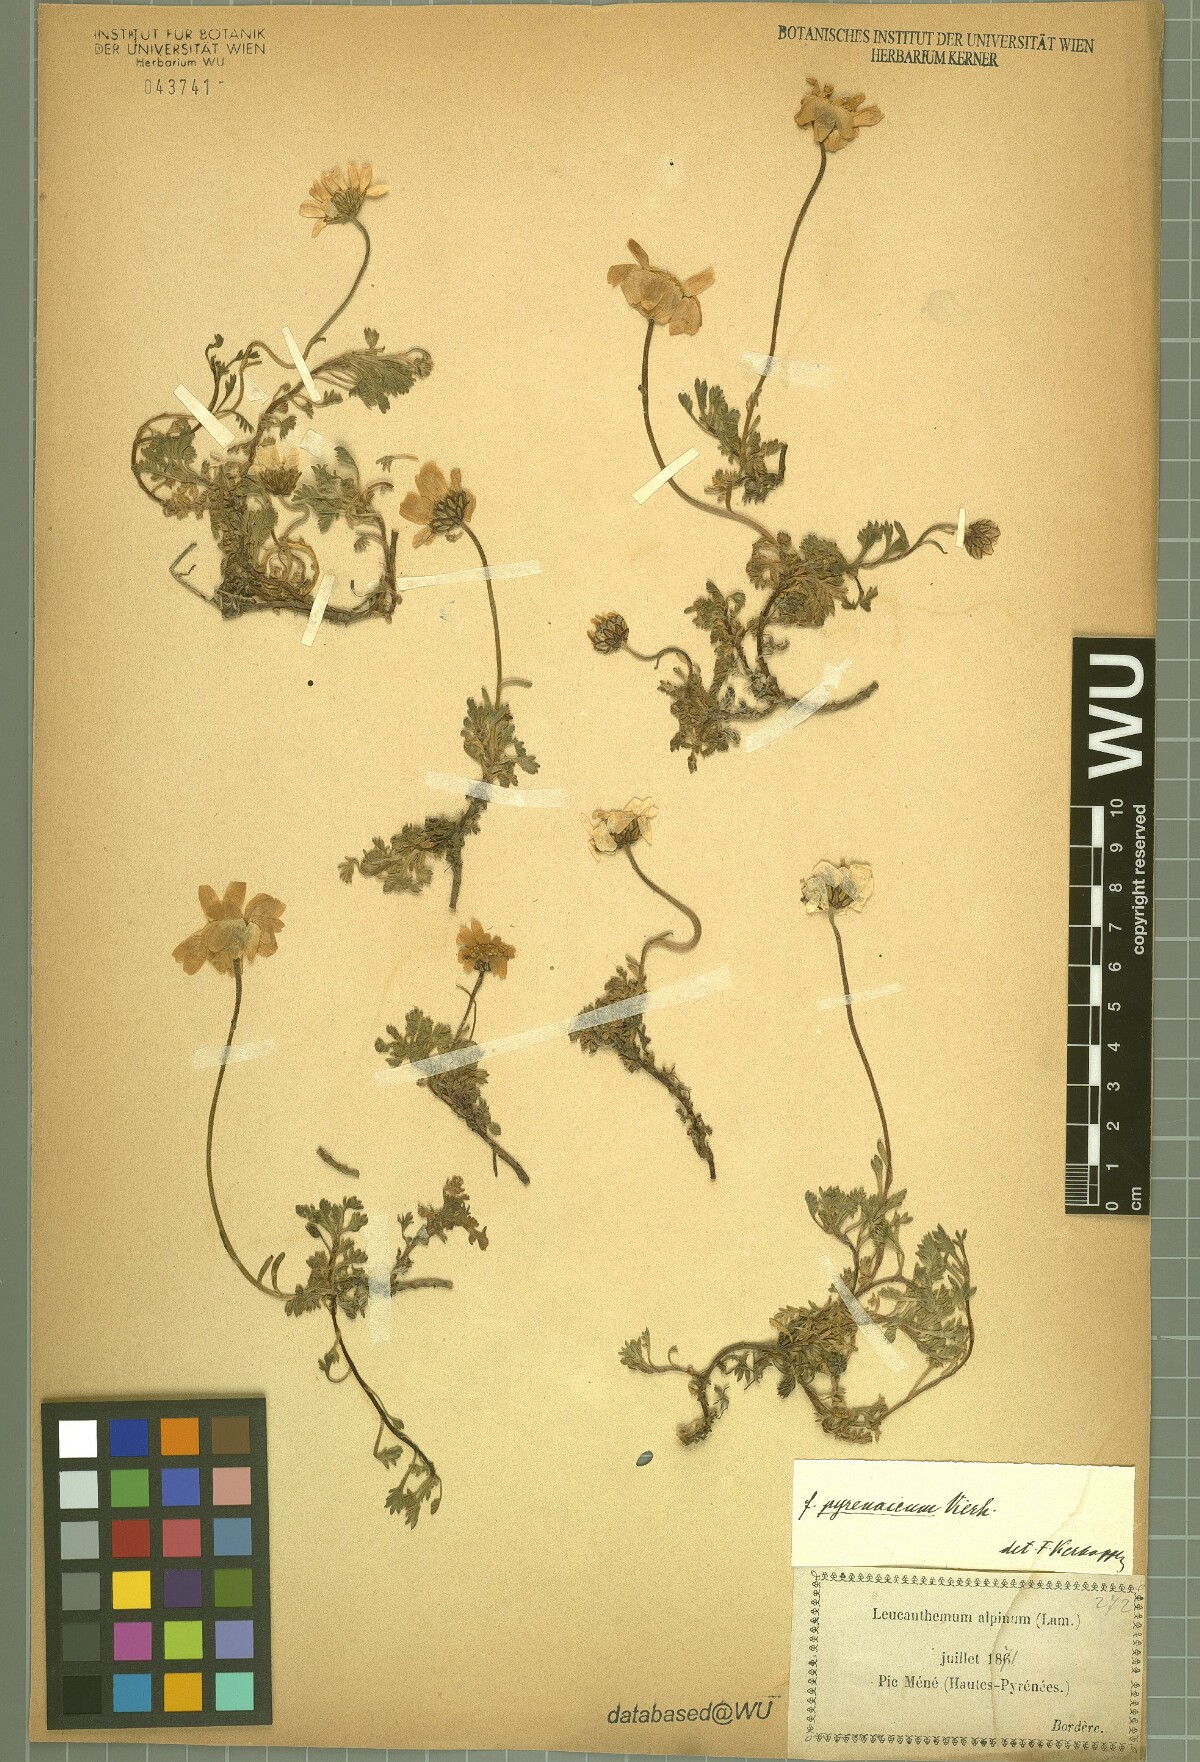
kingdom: Plantae
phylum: Tracheophyta
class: Magnoliopsida
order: Asterales
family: Asteraceae
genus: Leucanthemopsis
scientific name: Leucanthemopsis alpina
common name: Alpine moon daisy
